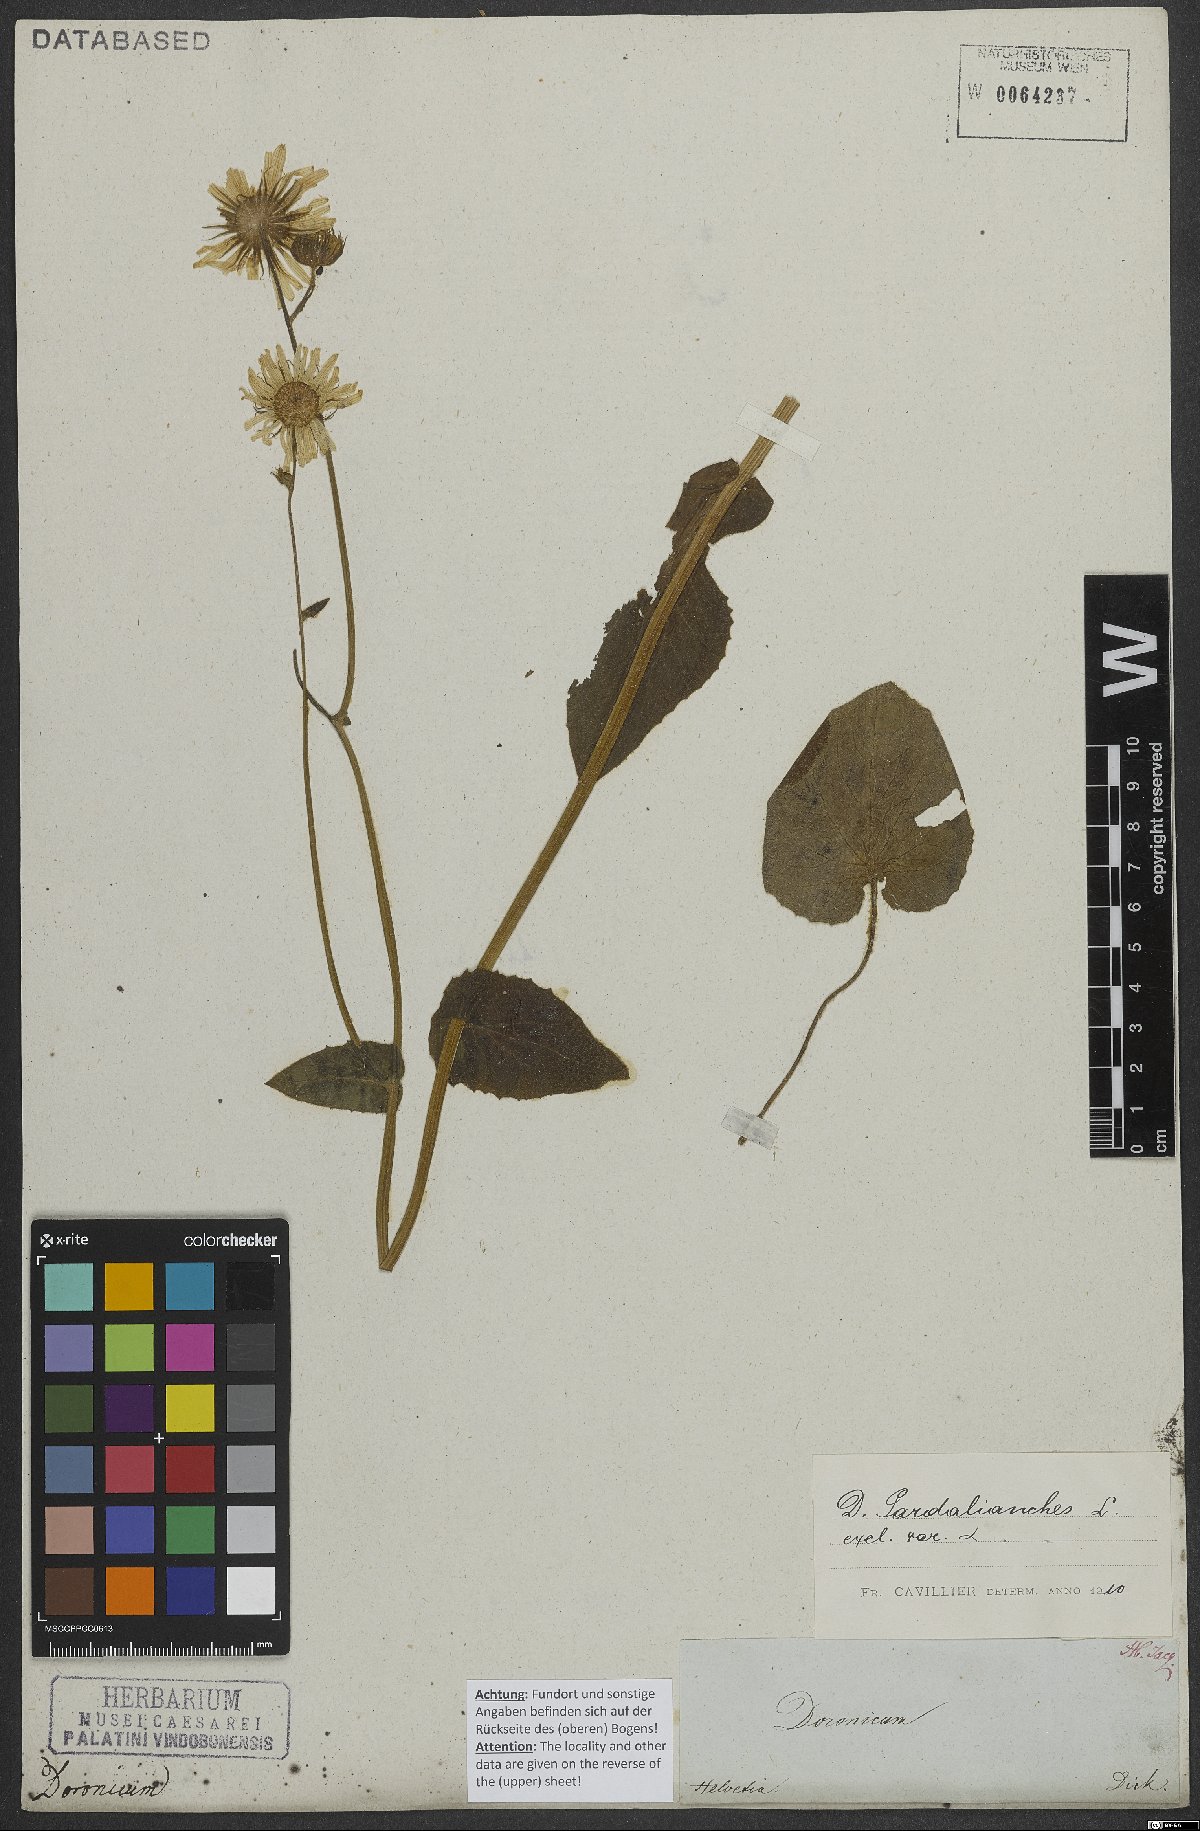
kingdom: Plantae
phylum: Tracheophyta
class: Magnoliopsida
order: Asterales
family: Asteraceae
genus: Doronicum
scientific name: Doronicum pardalianches
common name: Leopard's-bane
